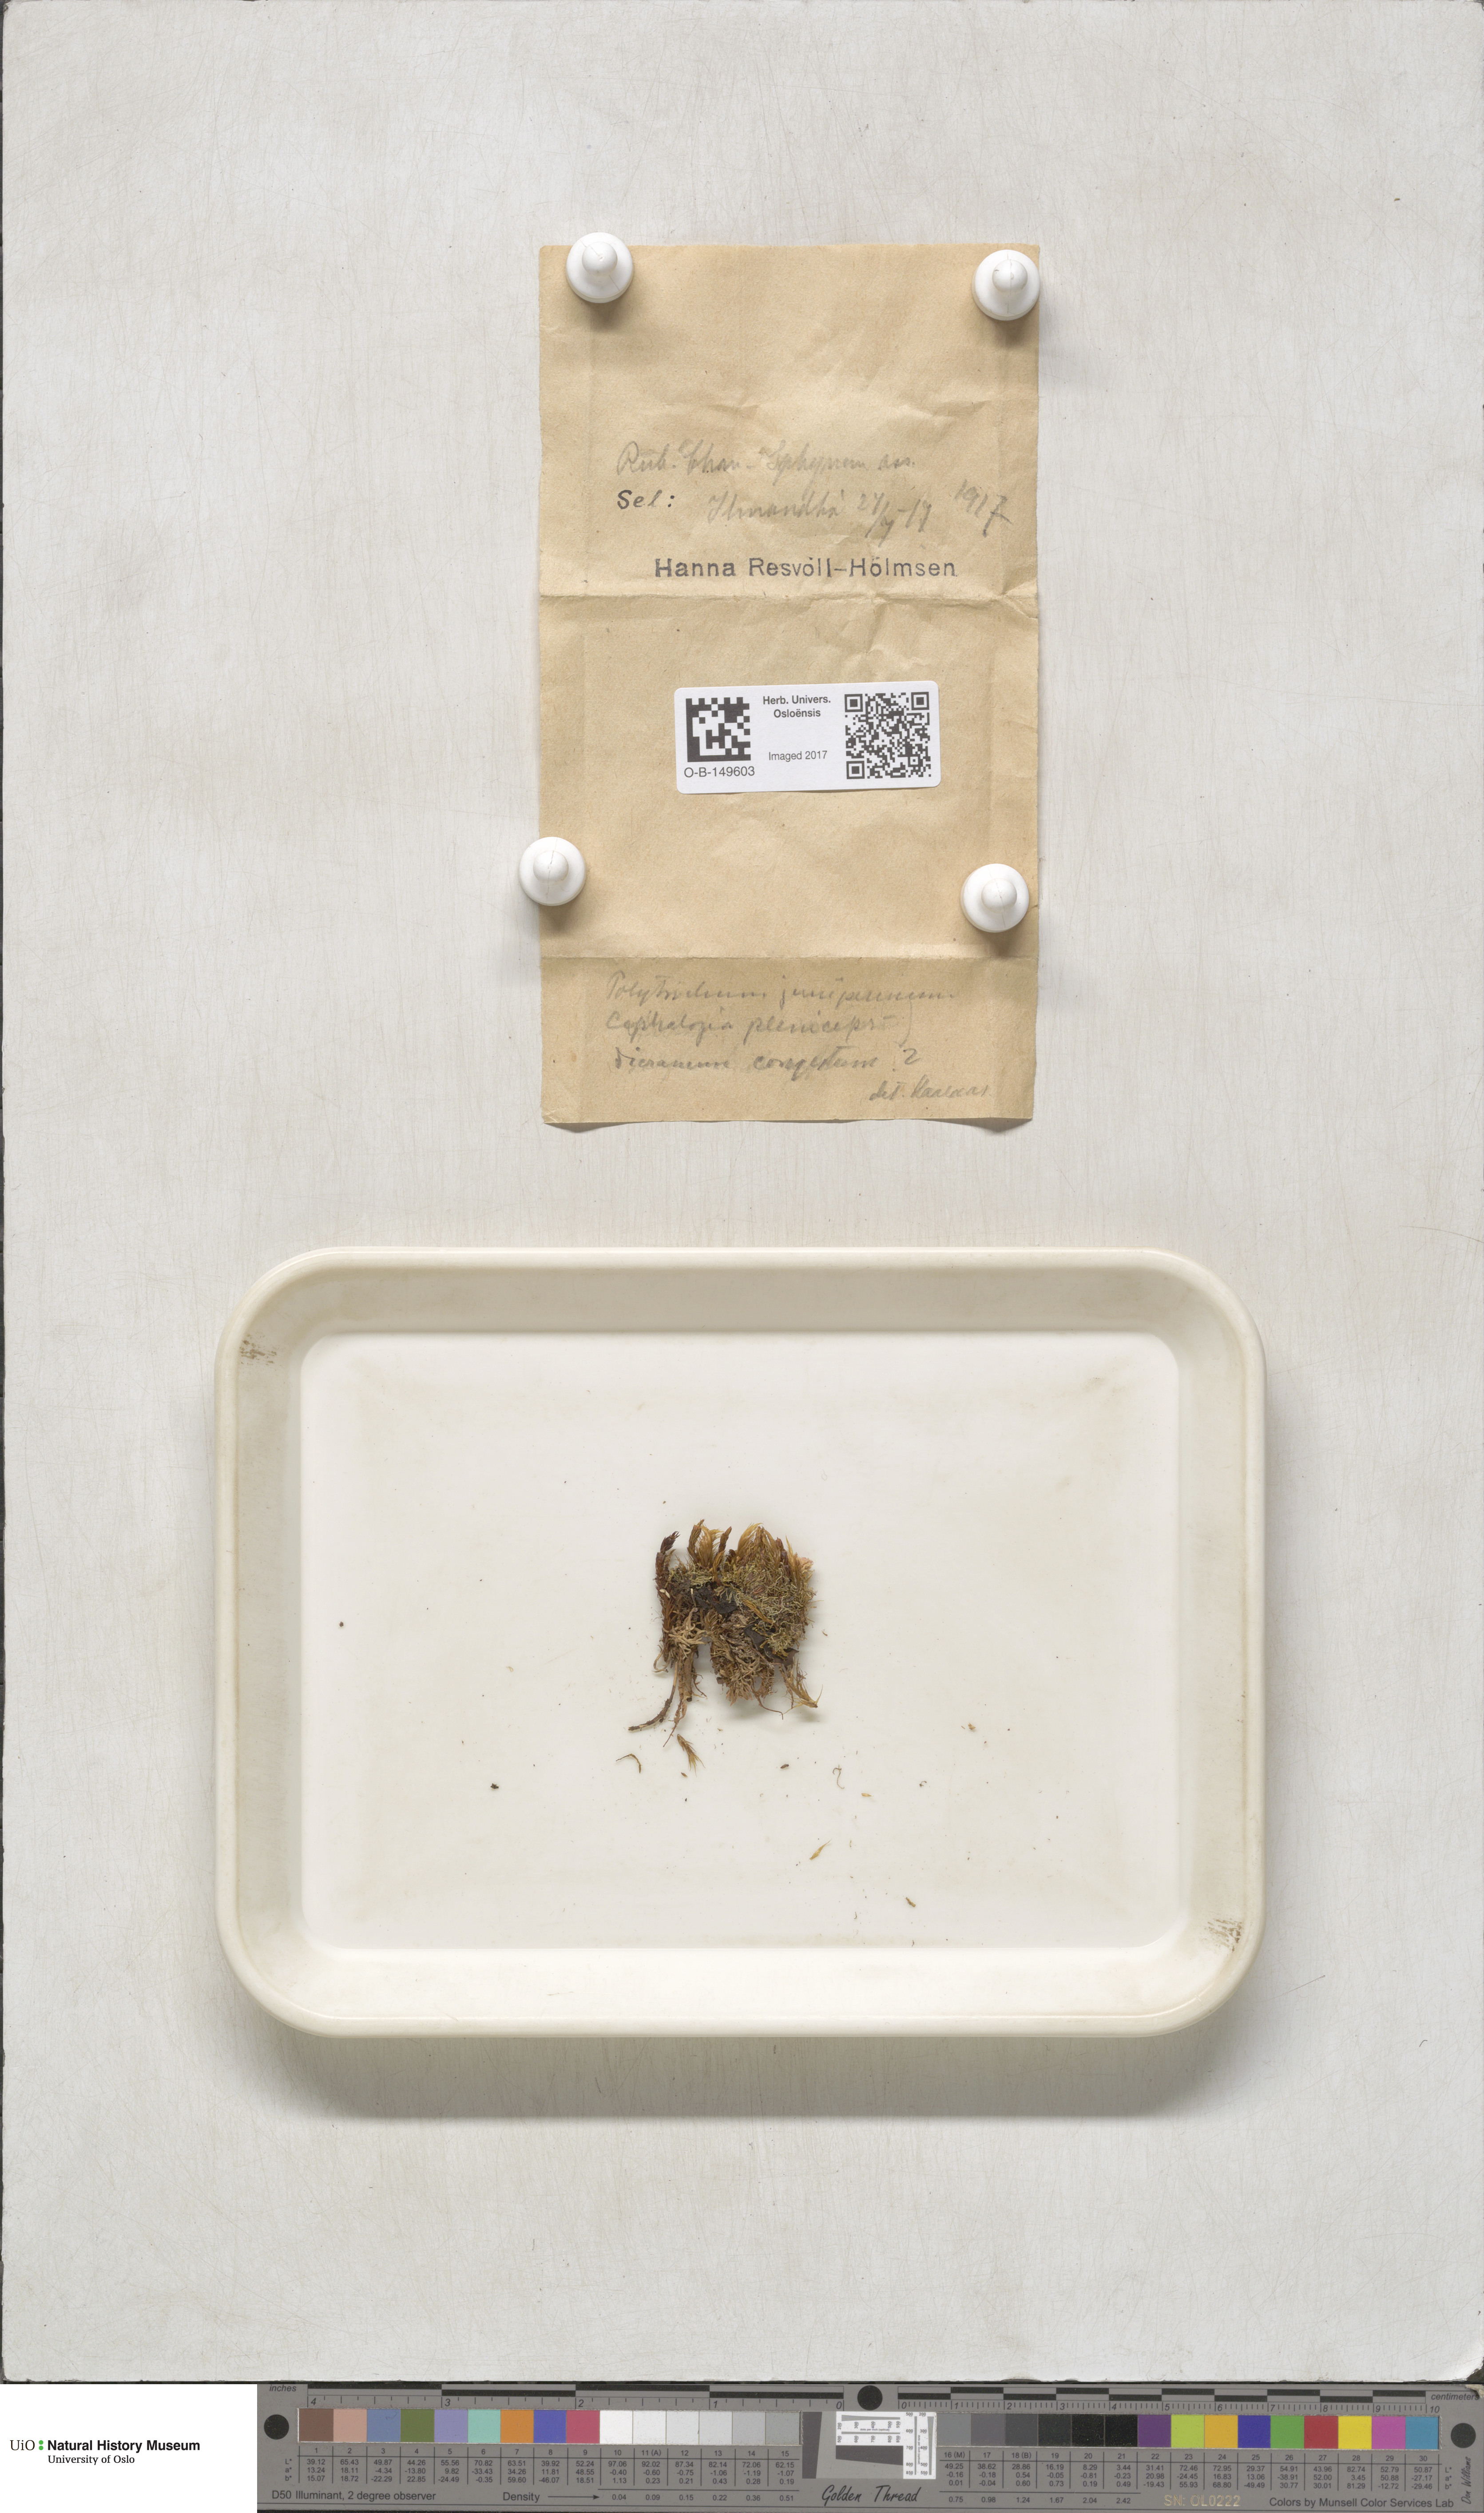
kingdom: Plantae
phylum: Bryophyta
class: Polytrichopsida
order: Polytrichales
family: Polytrichaceae
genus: Polytrichum
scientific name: Polytrichum juniperinum
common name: Juniper haircap moss
